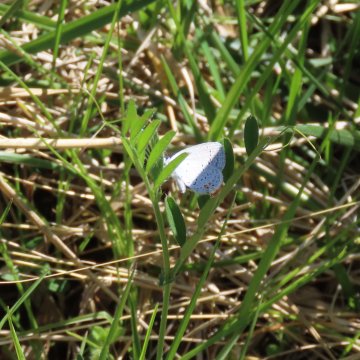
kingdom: Animalia
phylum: Arthropoda
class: Insecta
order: Lepidoptera
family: Lycaenidae
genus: Elkalyce
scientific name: Elkalyce comyntas
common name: Eastern Tailed-Blue
